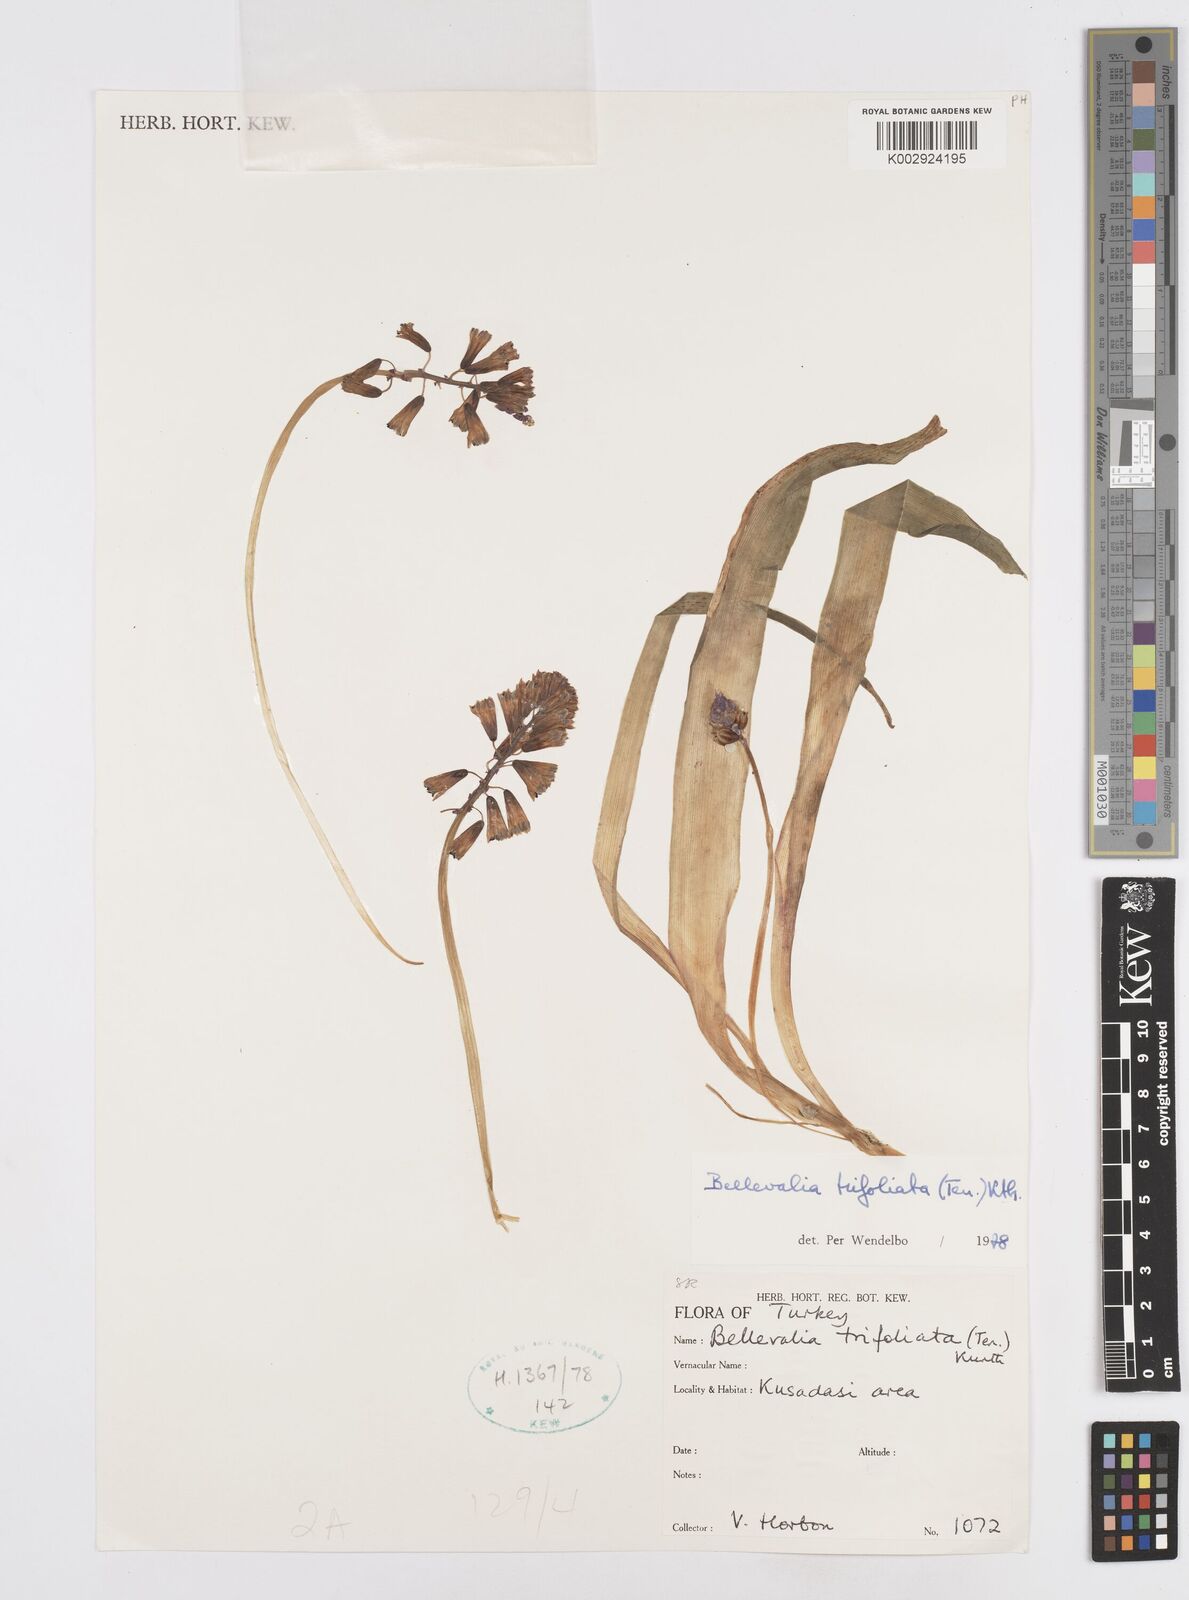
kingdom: Plantae
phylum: Tracheophyta
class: Liliopsida
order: Asparagales
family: Asparagaceae
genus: Bellevalia
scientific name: Bellevalia trifoliata
